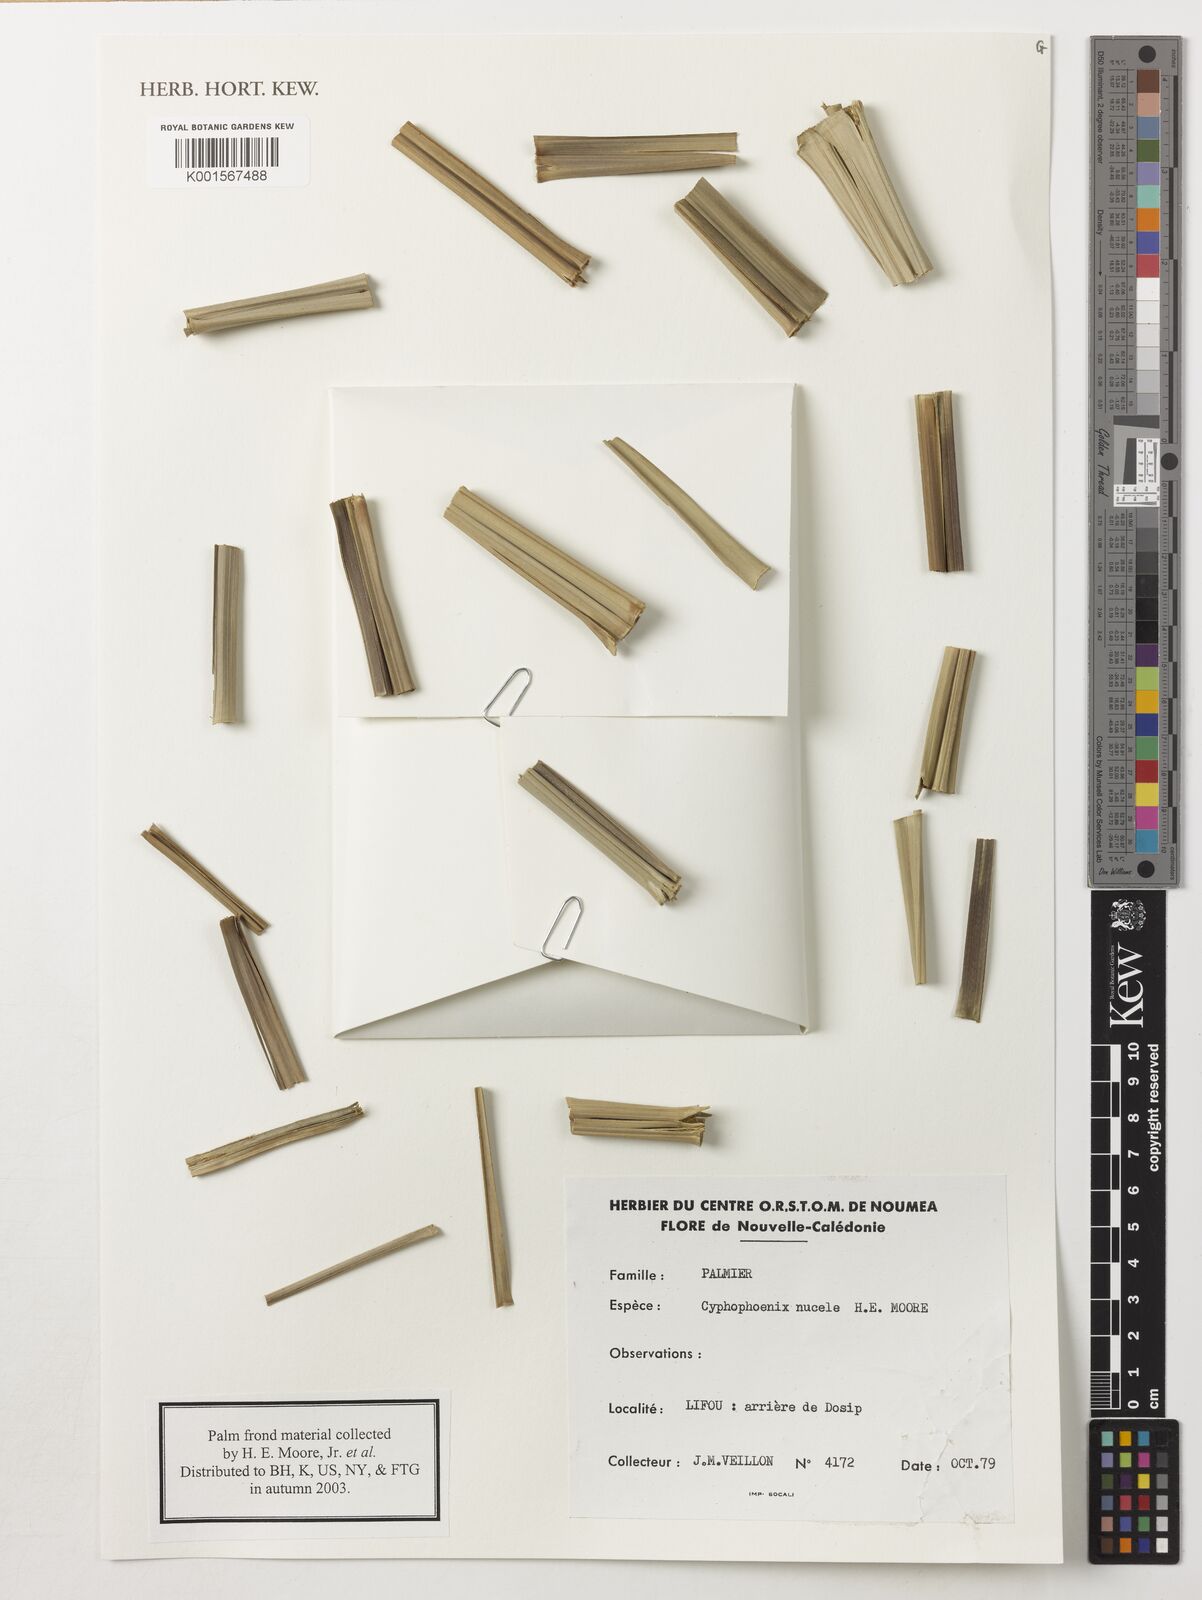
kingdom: Plantae
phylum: Tracheophyta
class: Liliopsida
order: Arecales
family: Arecaceae
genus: Cyphophoenix
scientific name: Cyphophoenix nucele
